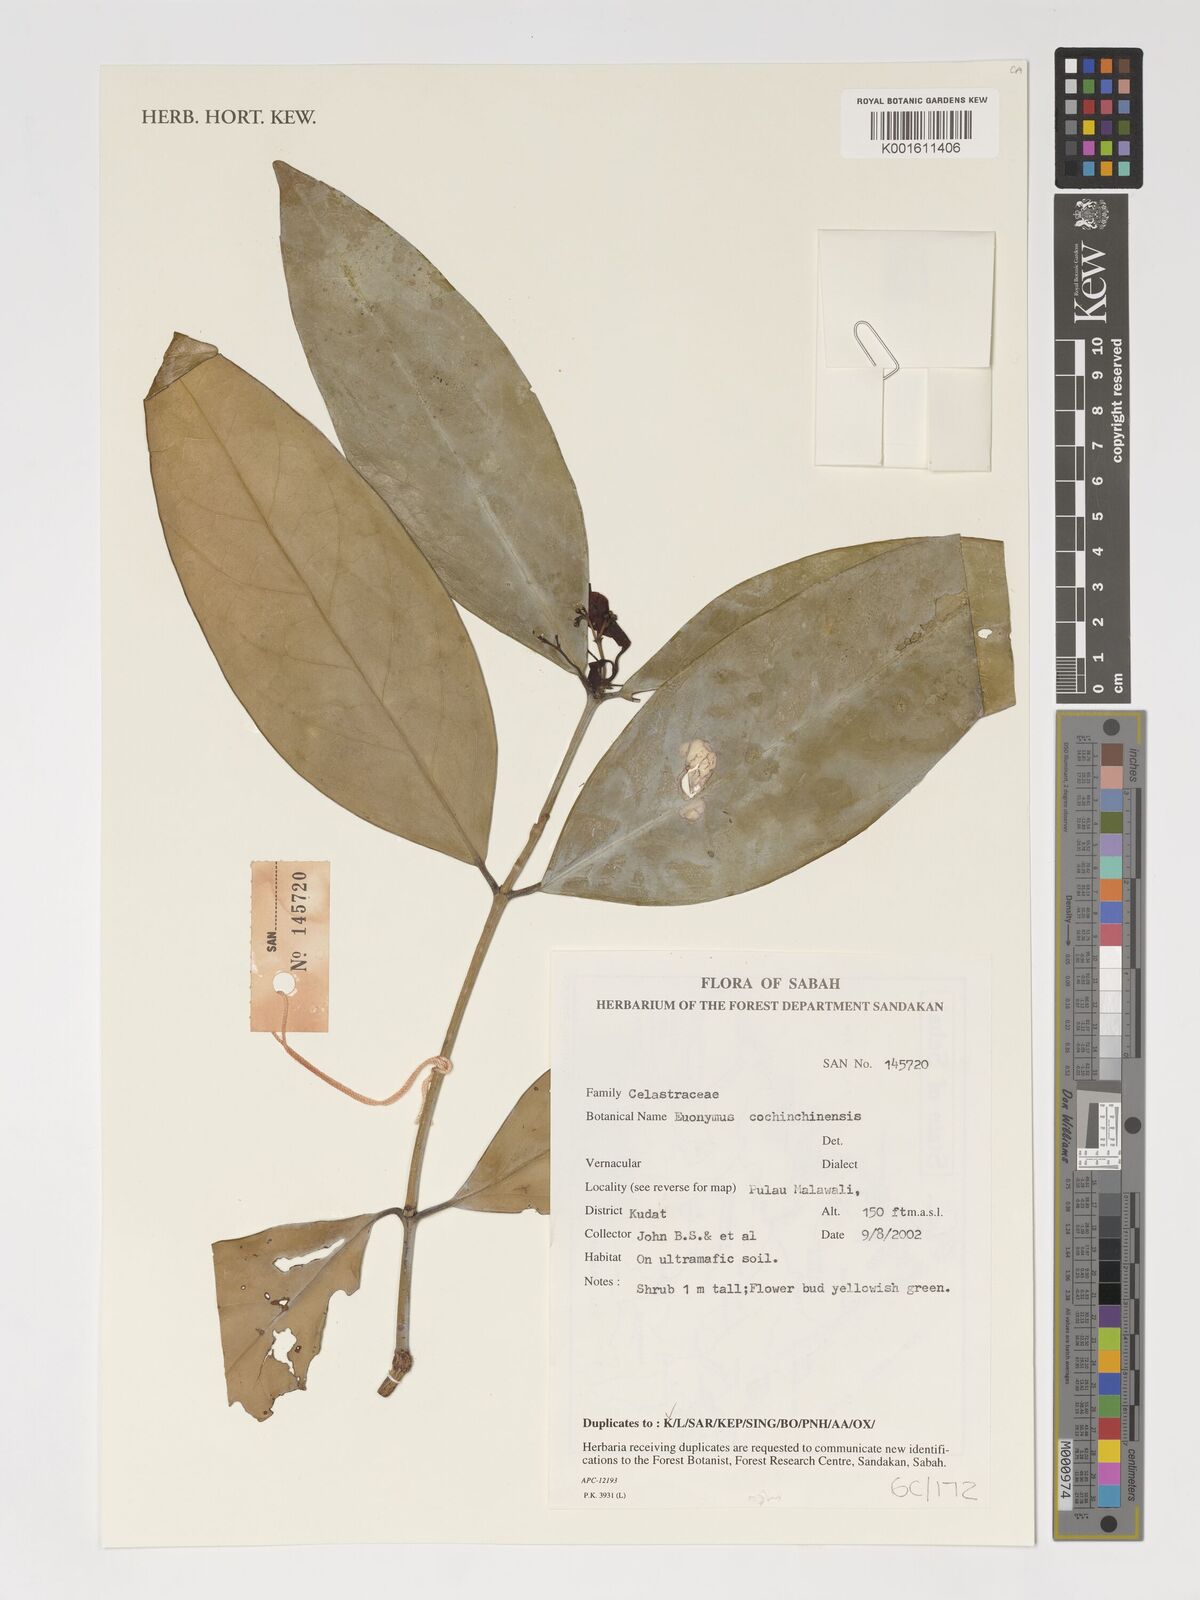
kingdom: Plantae
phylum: Tracheophyta
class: Magnoliopsida
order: Celastrales
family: Celastraceae
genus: Euonymus
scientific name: Euonymus cochinchinensis
